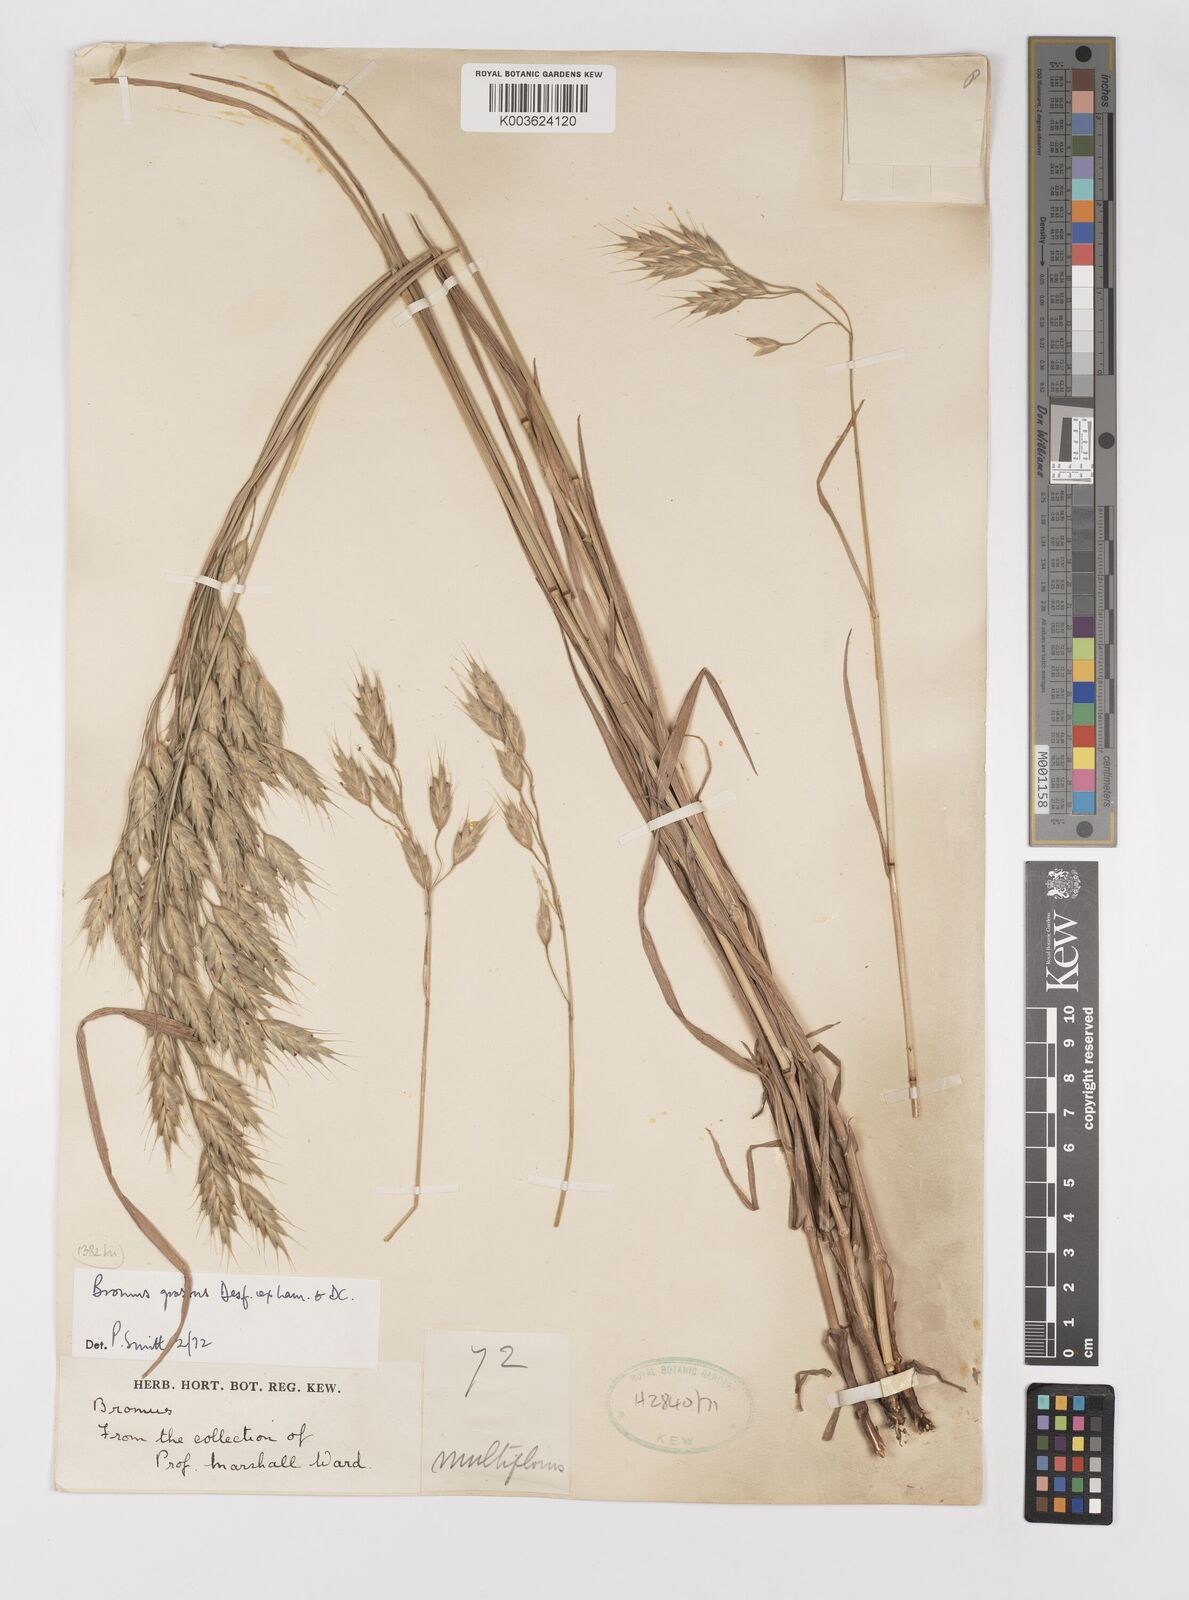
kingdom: Plantae
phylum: Tracheophyta
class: Liliopsida
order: Poales
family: Poaceae
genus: Bromus
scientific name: Bromus grossus
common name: Whiskered brome
